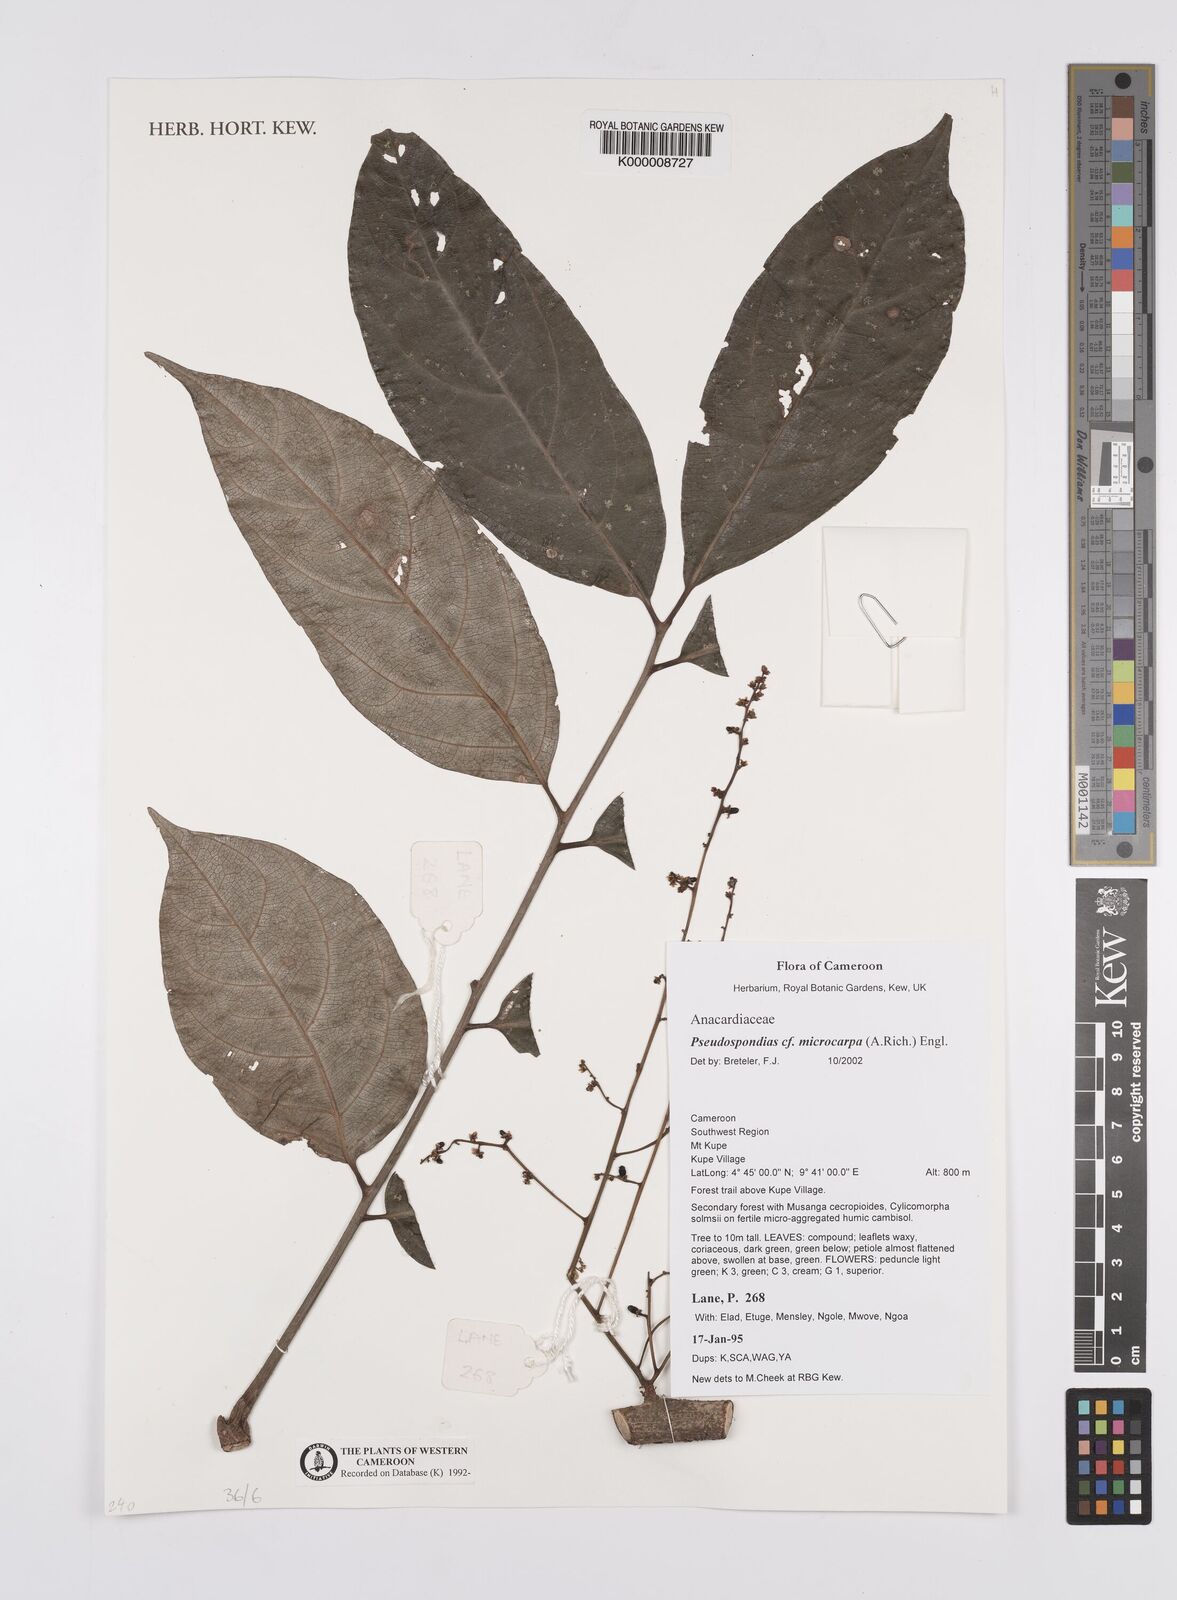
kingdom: Plantae
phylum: Tracheophyta
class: Magnoliopsida
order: Sapindales
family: Anacardiaceae
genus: Pseudospondias
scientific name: Pseudospondias microcarpa
